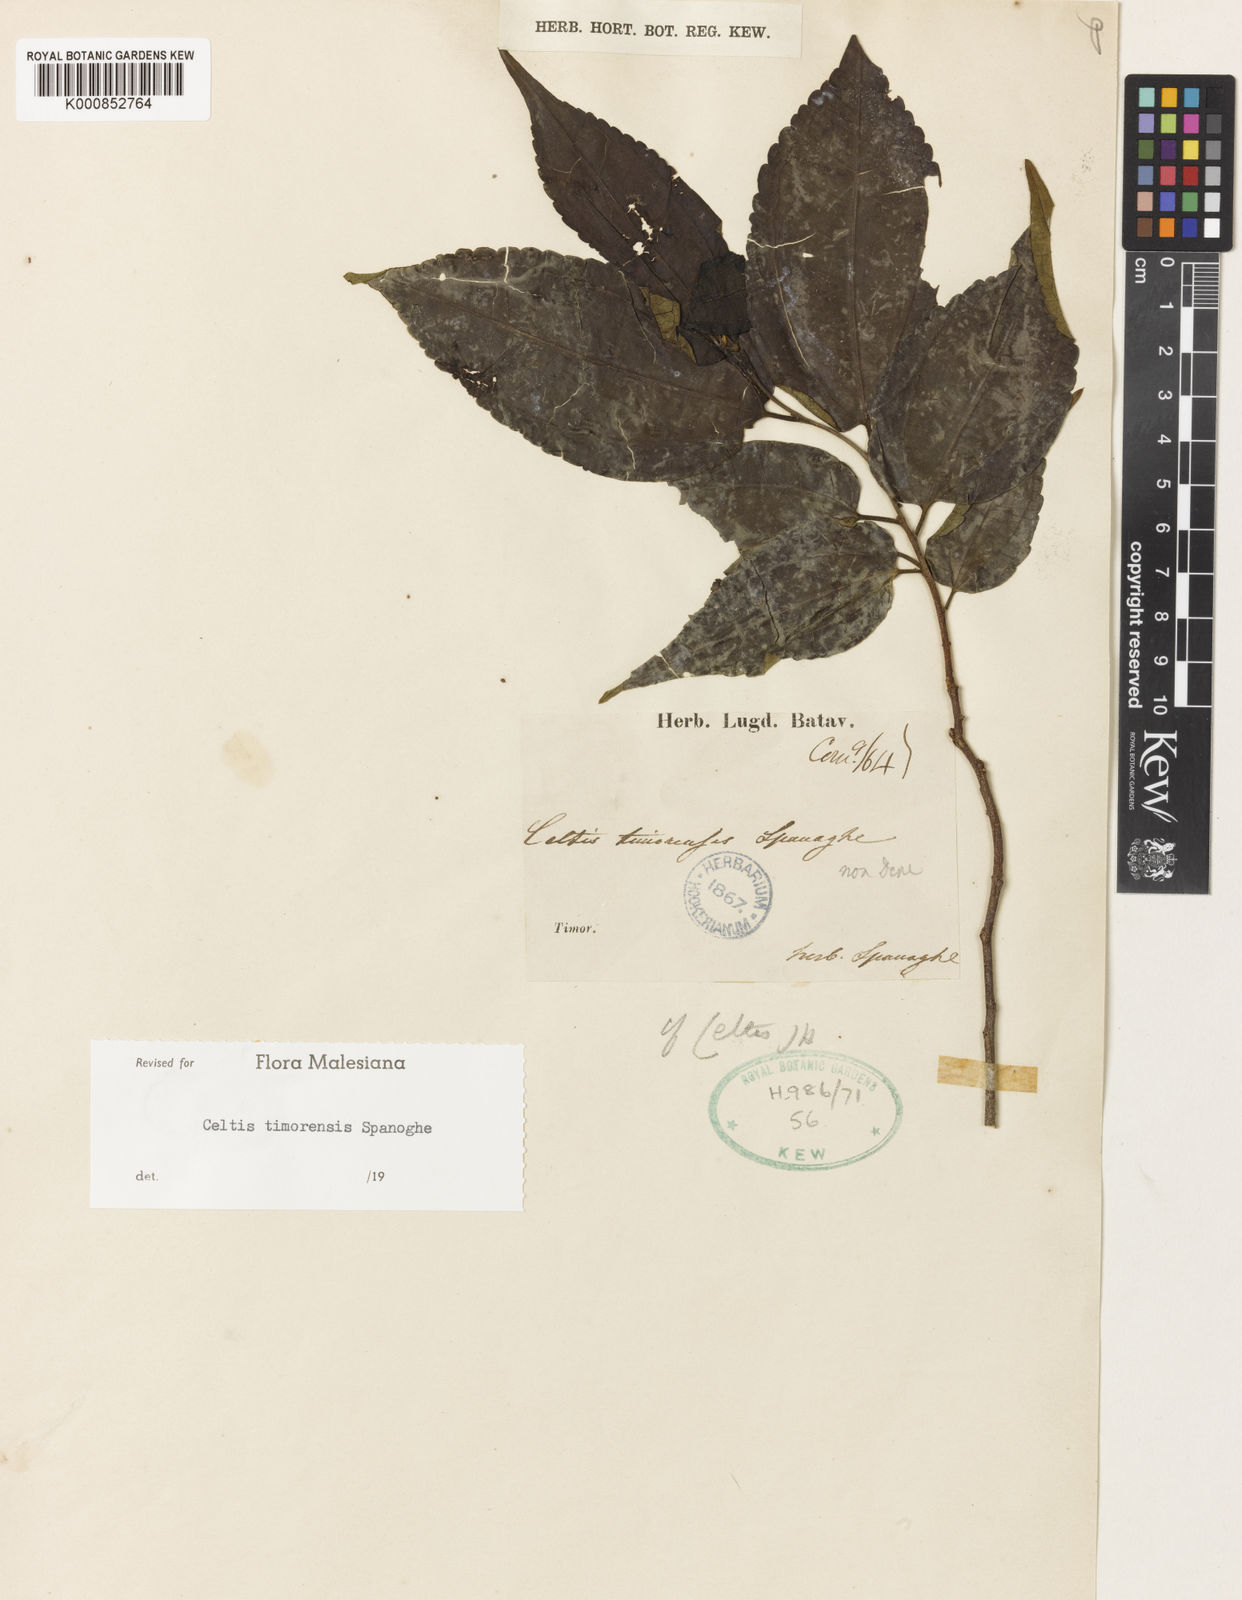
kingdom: Plantae
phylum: Tracheophyta
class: Magnoliopsida
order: Rosales
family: Cannabaceae
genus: Celtis
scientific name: Celtis timorensis
